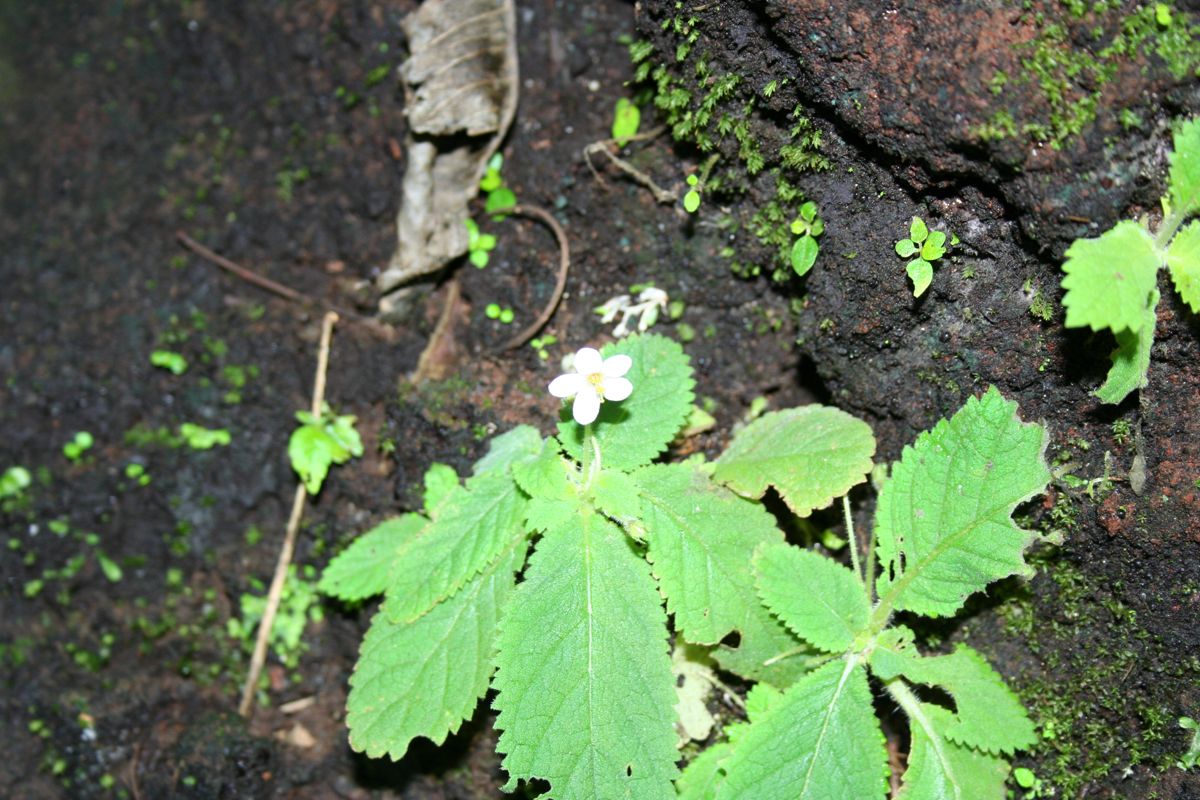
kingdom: Plantae
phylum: Tracheophyta
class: Magnoliopsida
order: Lamiales
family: Gesneriaceae
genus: Amalophyllon
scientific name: Amalophyllon repens
